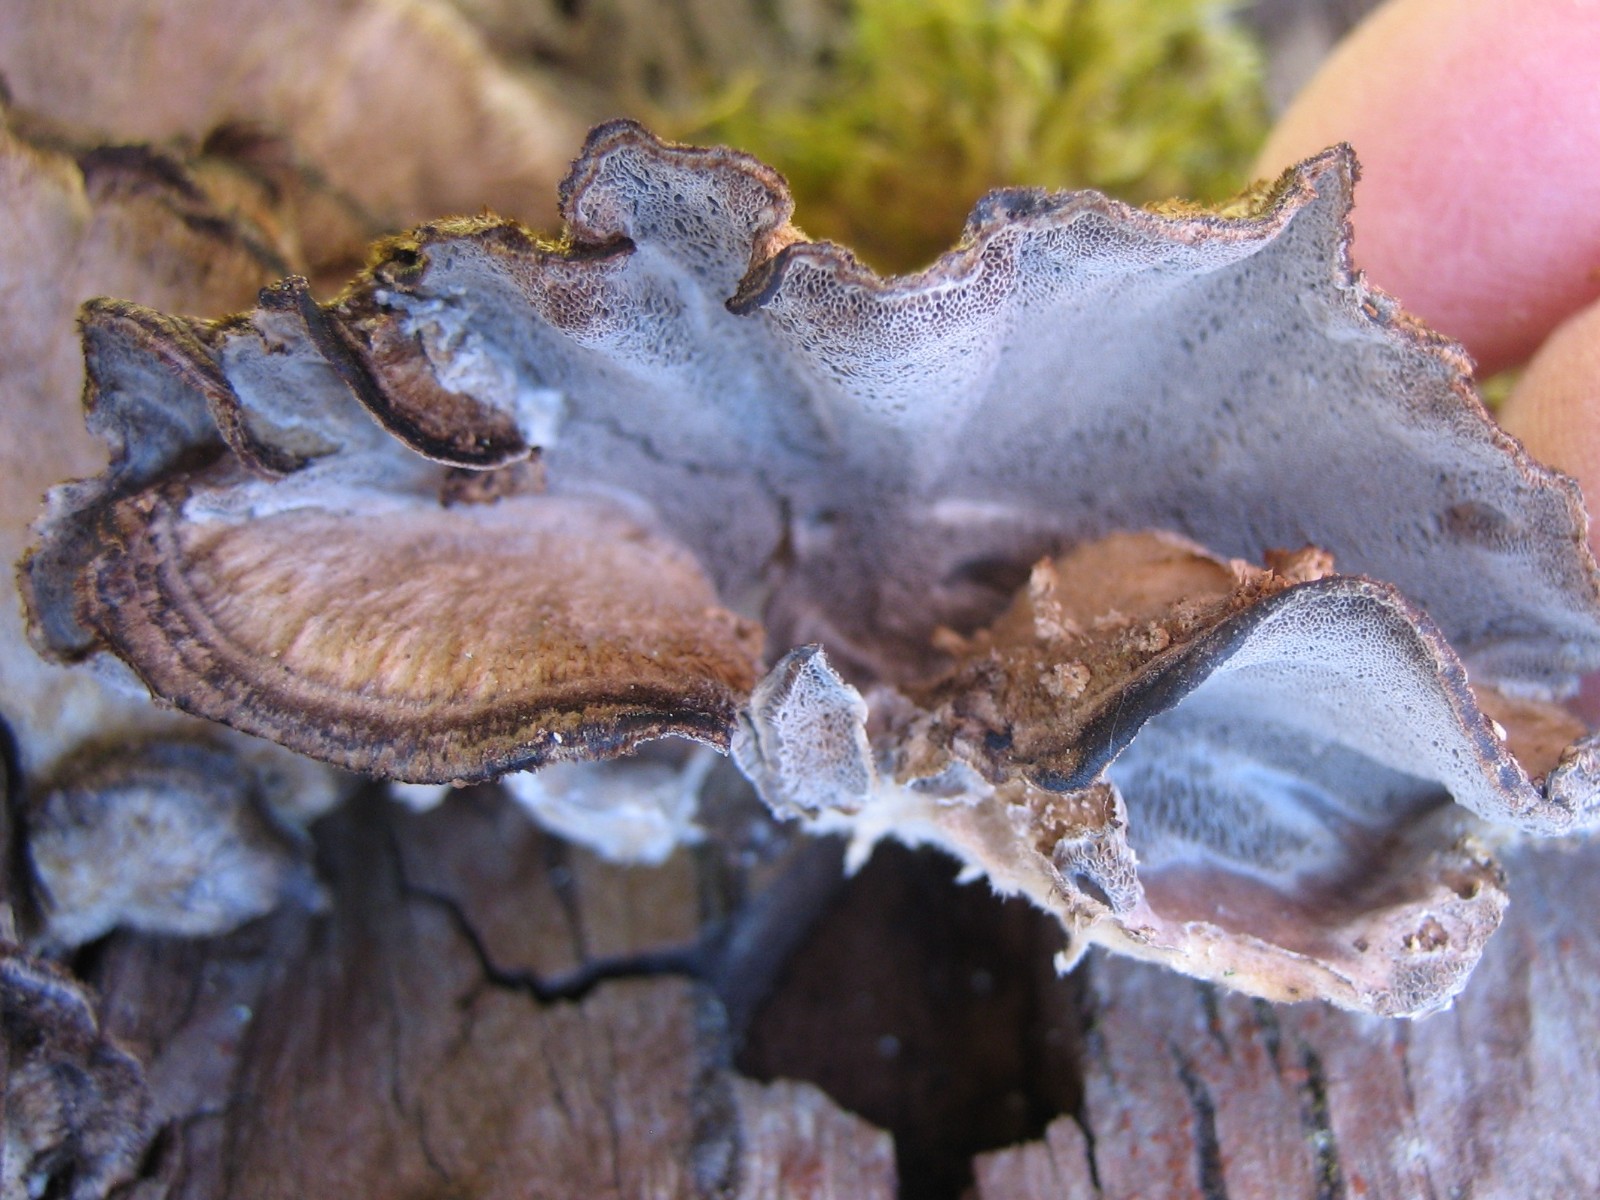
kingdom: Fungi
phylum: Basidiomycota
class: Agaricomycetes
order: Polyporales
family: Phanerochaetaceae
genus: Bjerkandera
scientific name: Bjerkandera adusta
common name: sveden sodporesvamp
